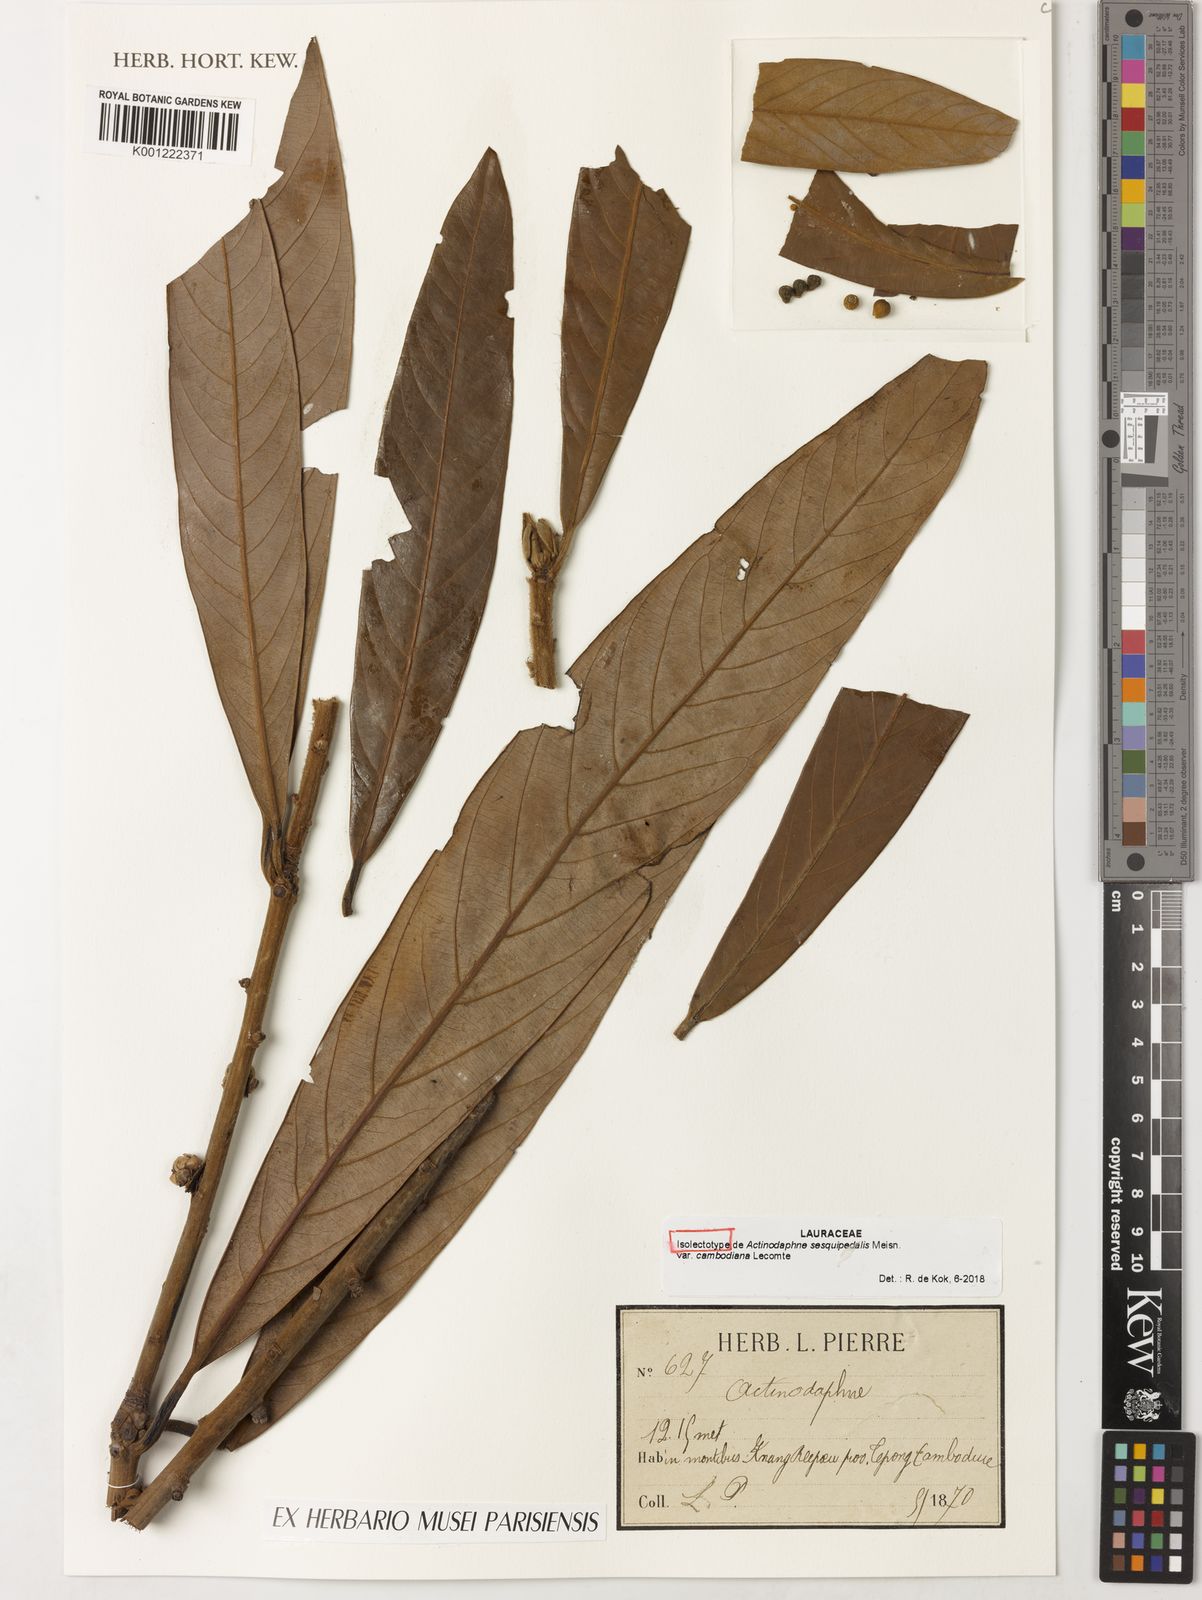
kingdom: Plantae
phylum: Tracheophyta
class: Magnoliopsida
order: Laurales
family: Lauraceae
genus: Actinodaphne
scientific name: Actinodaphne
